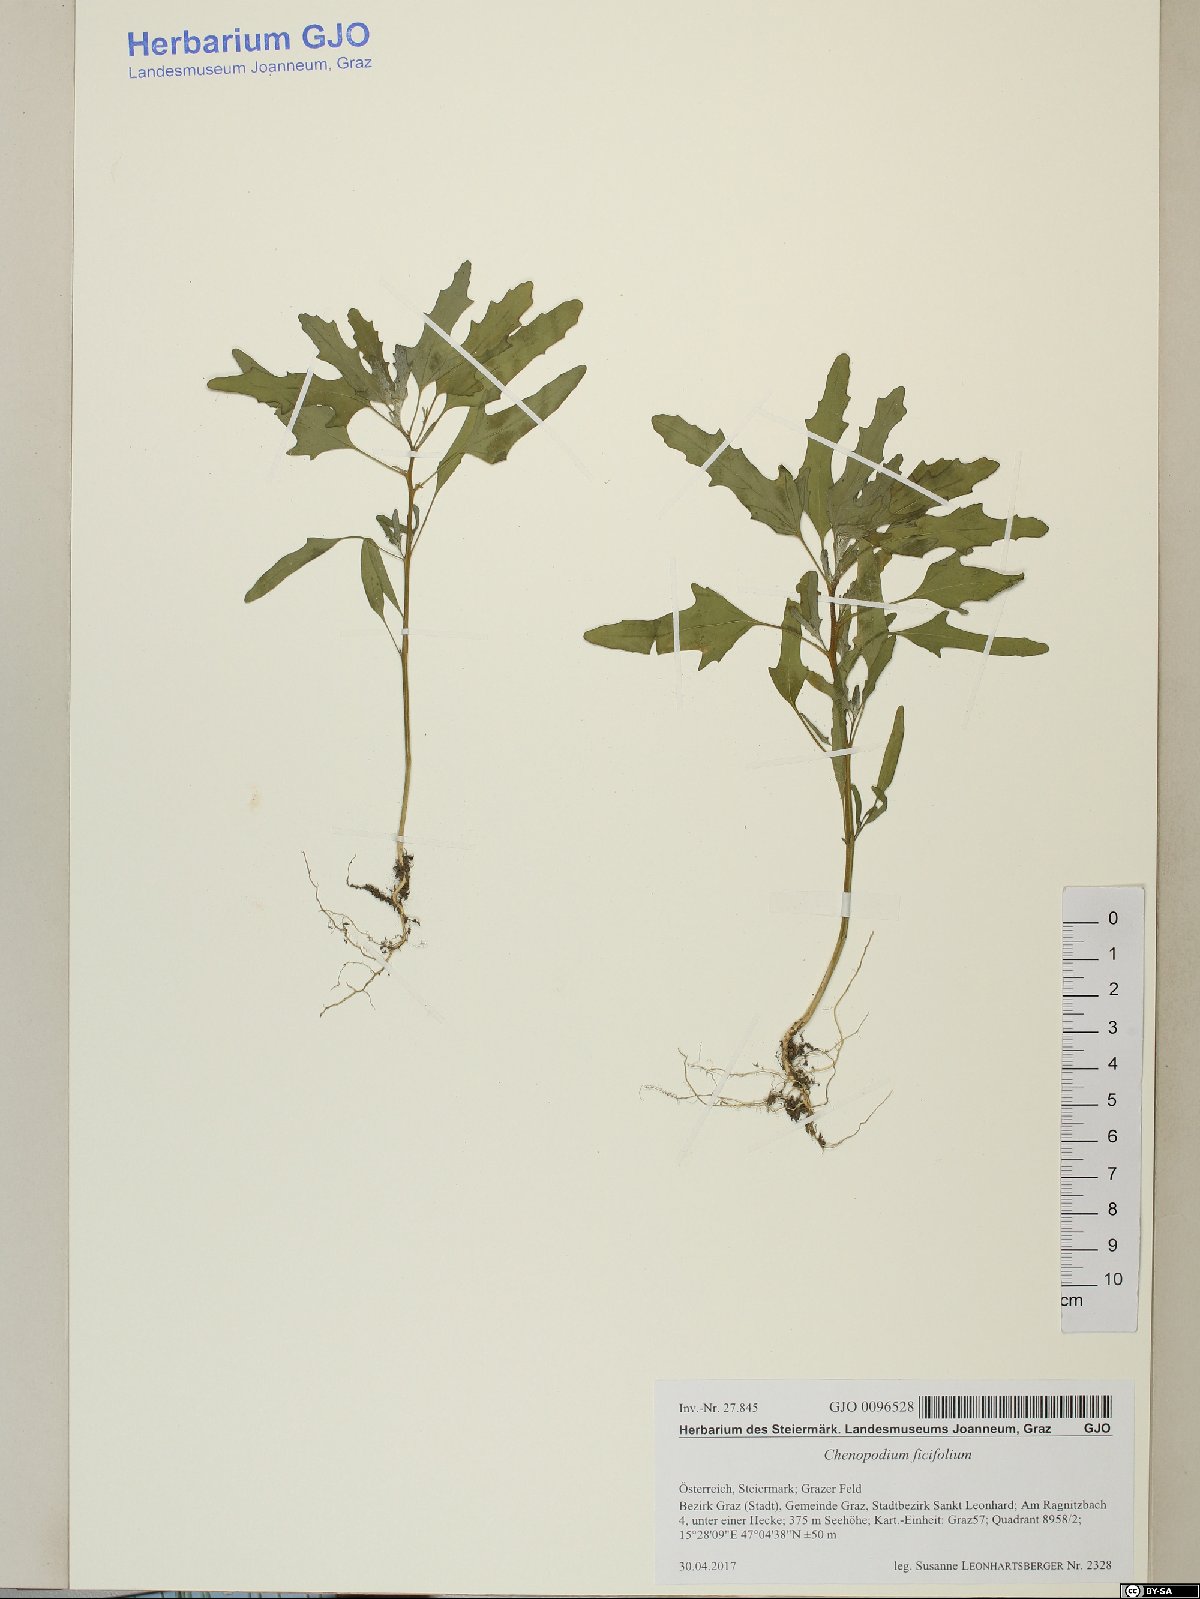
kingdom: Plantae
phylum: Tracheophyta
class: Magnoliopsida
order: Caryophyllales
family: Amaranthaceae
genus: Chenopodium
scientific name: Chenopodium ficifolium
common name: Fig-leaved goosefoot
